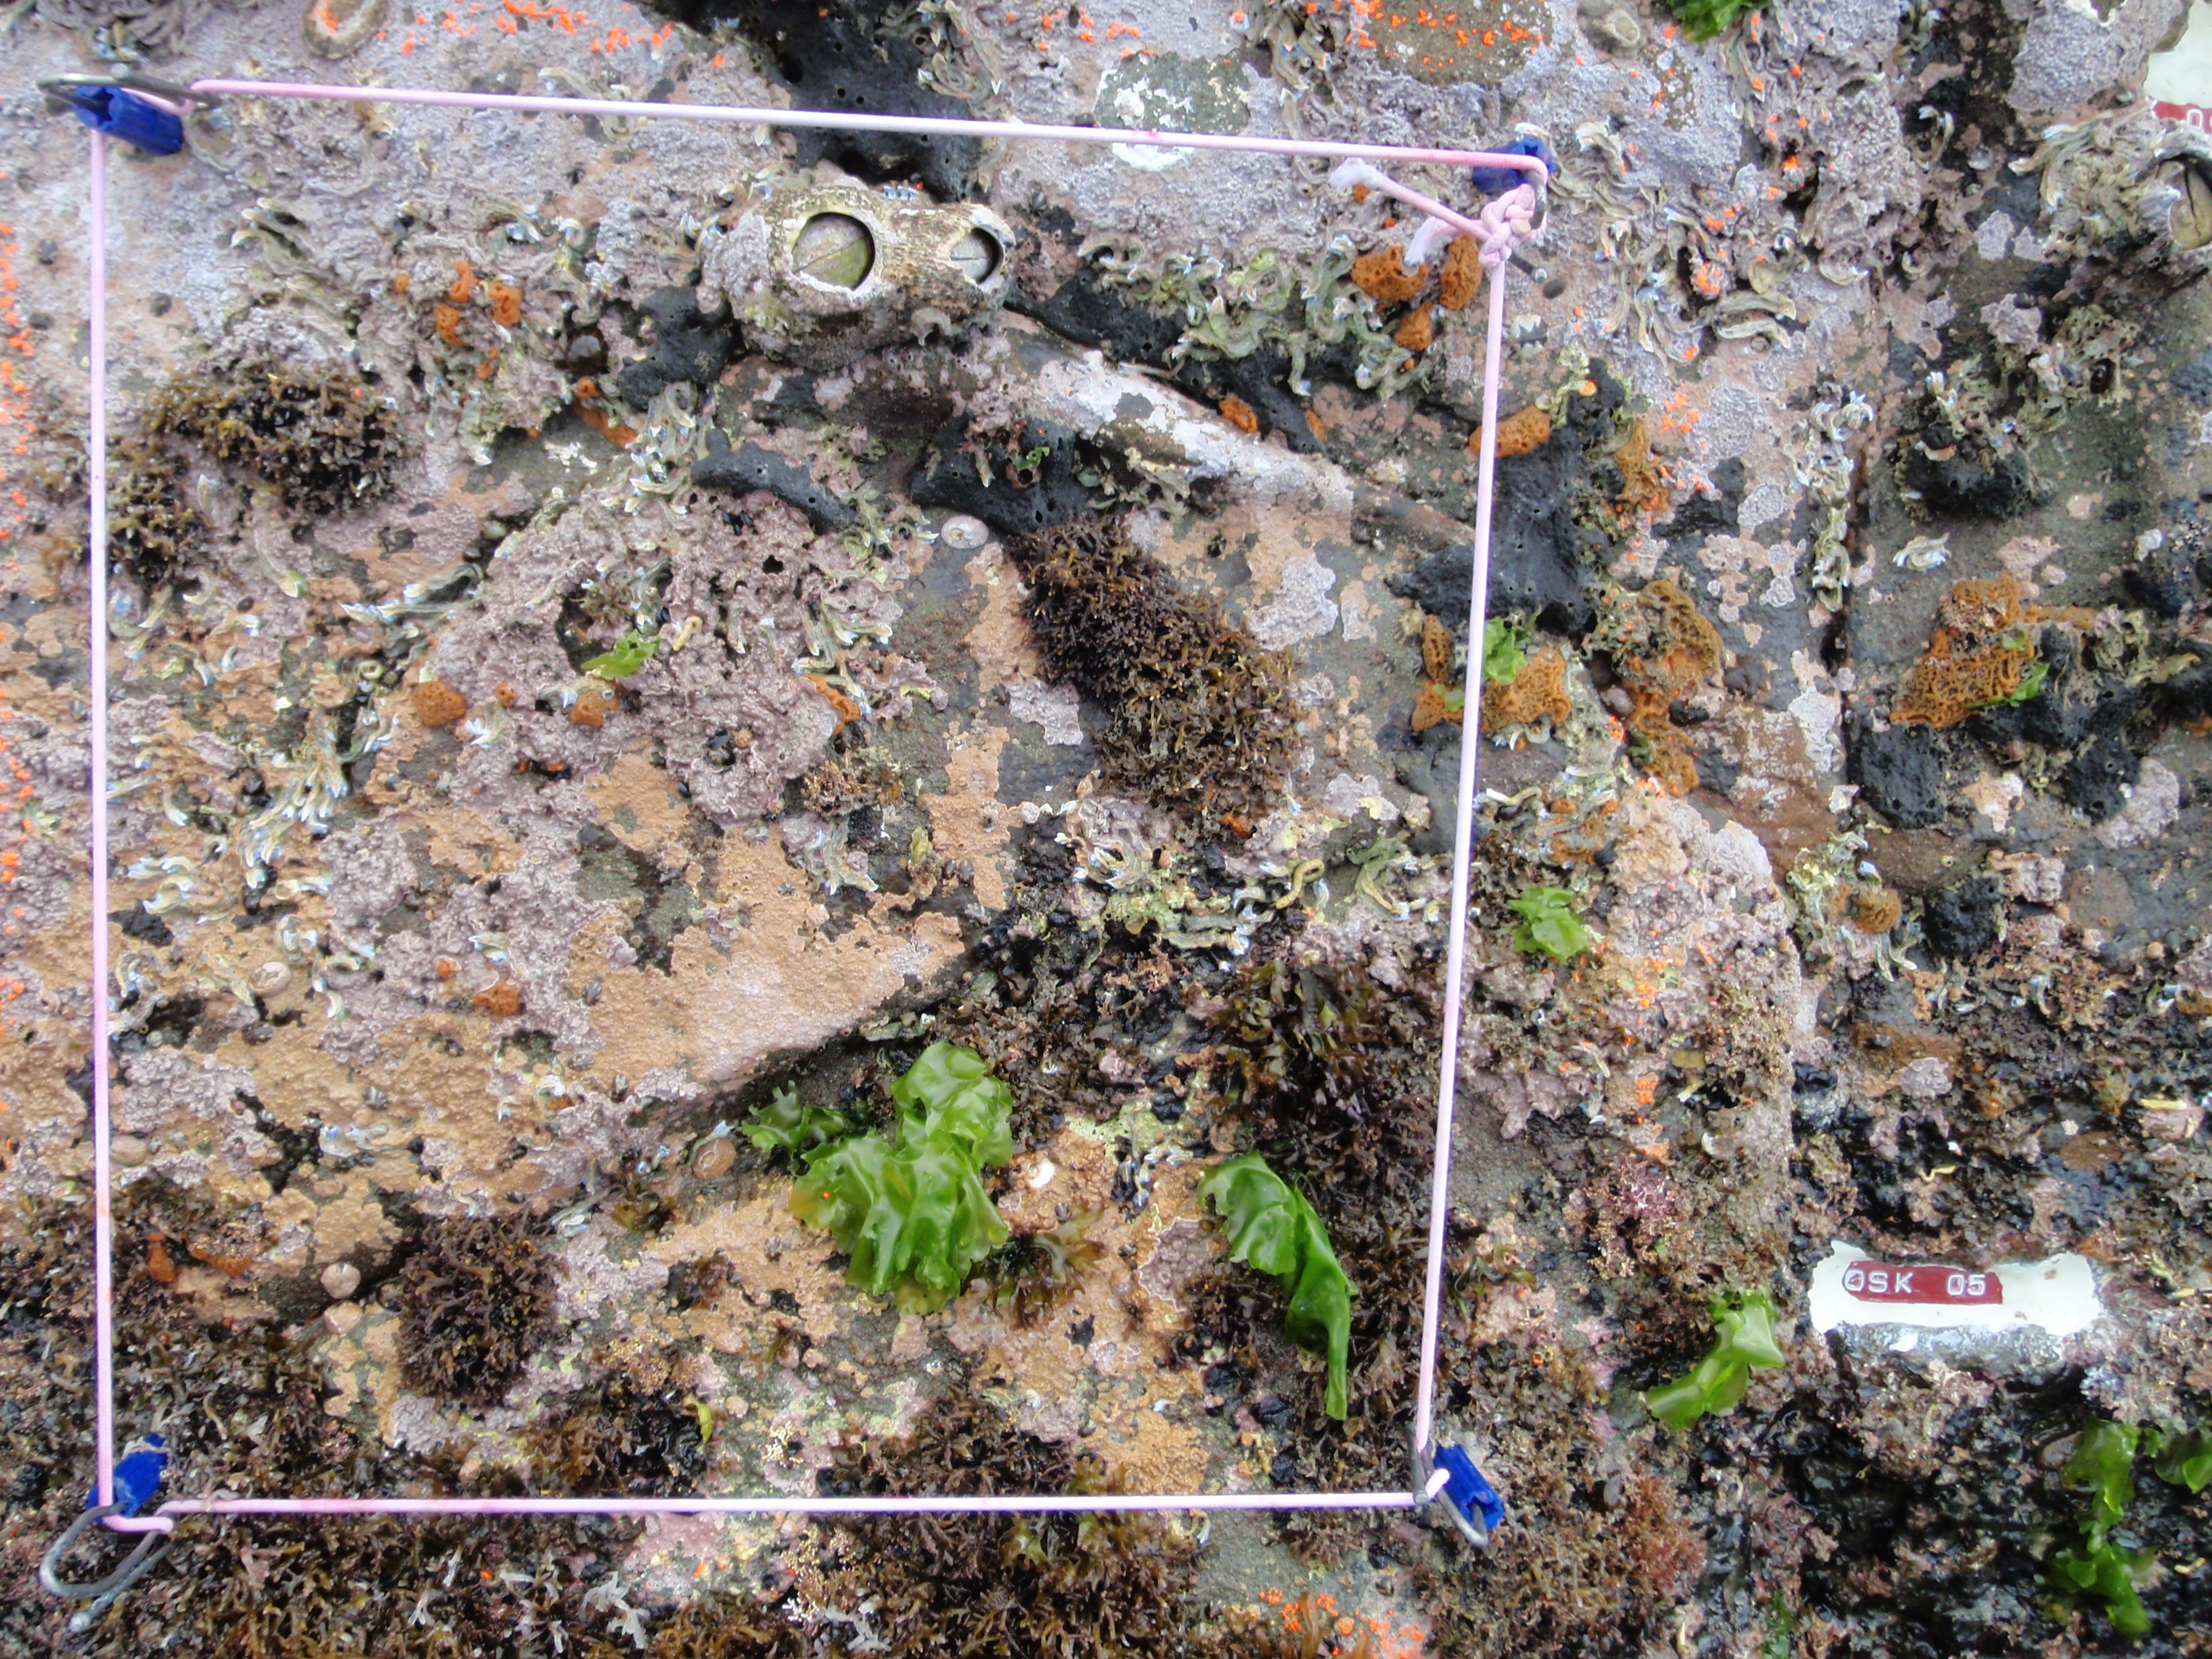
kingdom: Animalia
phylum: Arthropoda
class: Maxillopoda
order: Sessilia
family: Chthamalidae
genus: Chthamalus
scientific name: Chthamalus challengeri
